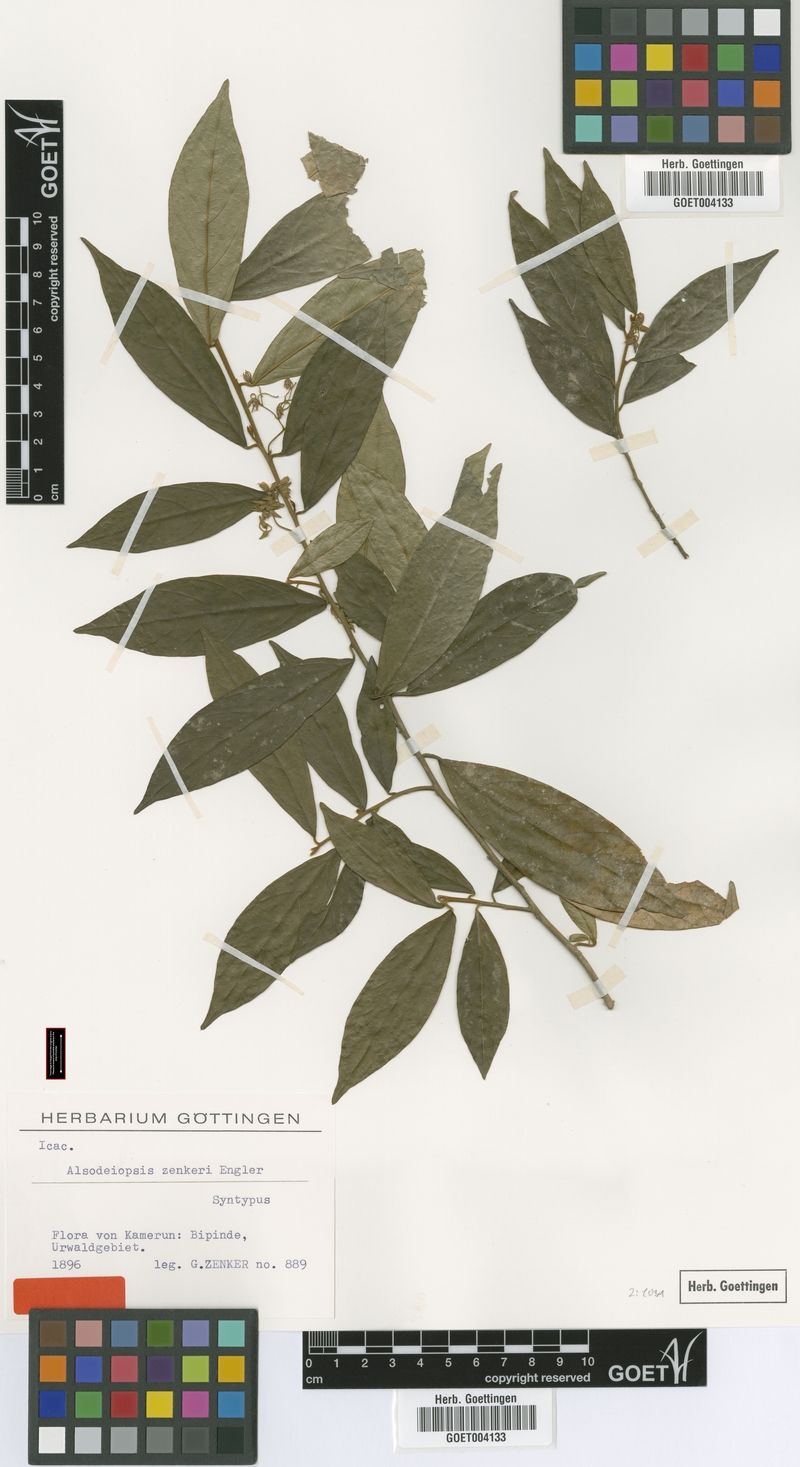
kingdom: Plantae
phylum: Tracheophyta
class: Magnoliopsida
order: Icacinales
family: Icacinaceae
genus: Alsodeiopsis
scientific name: Alsodeiopsis zenkeri
